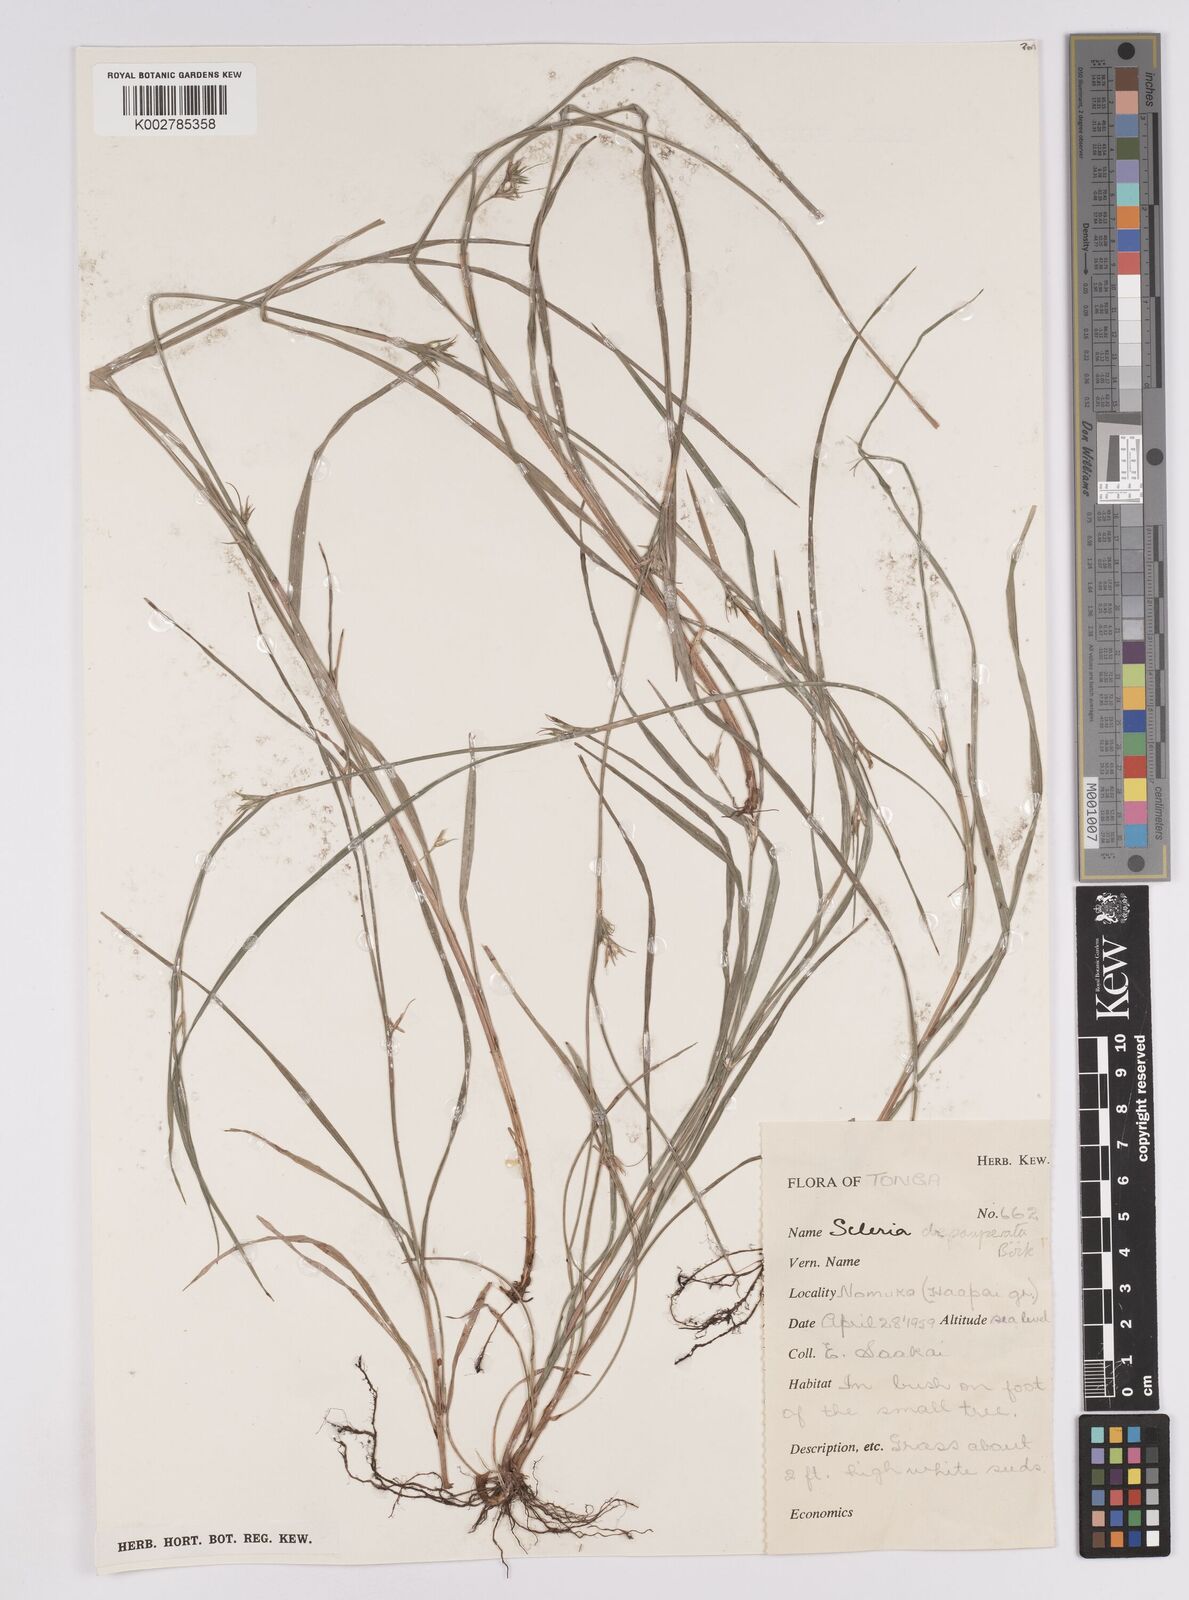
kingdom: Plantae
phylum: Tracheophyta
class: Liliopsida
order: Poales
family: Cyperaceae
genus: Scleria
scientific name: Scleria depauperata
